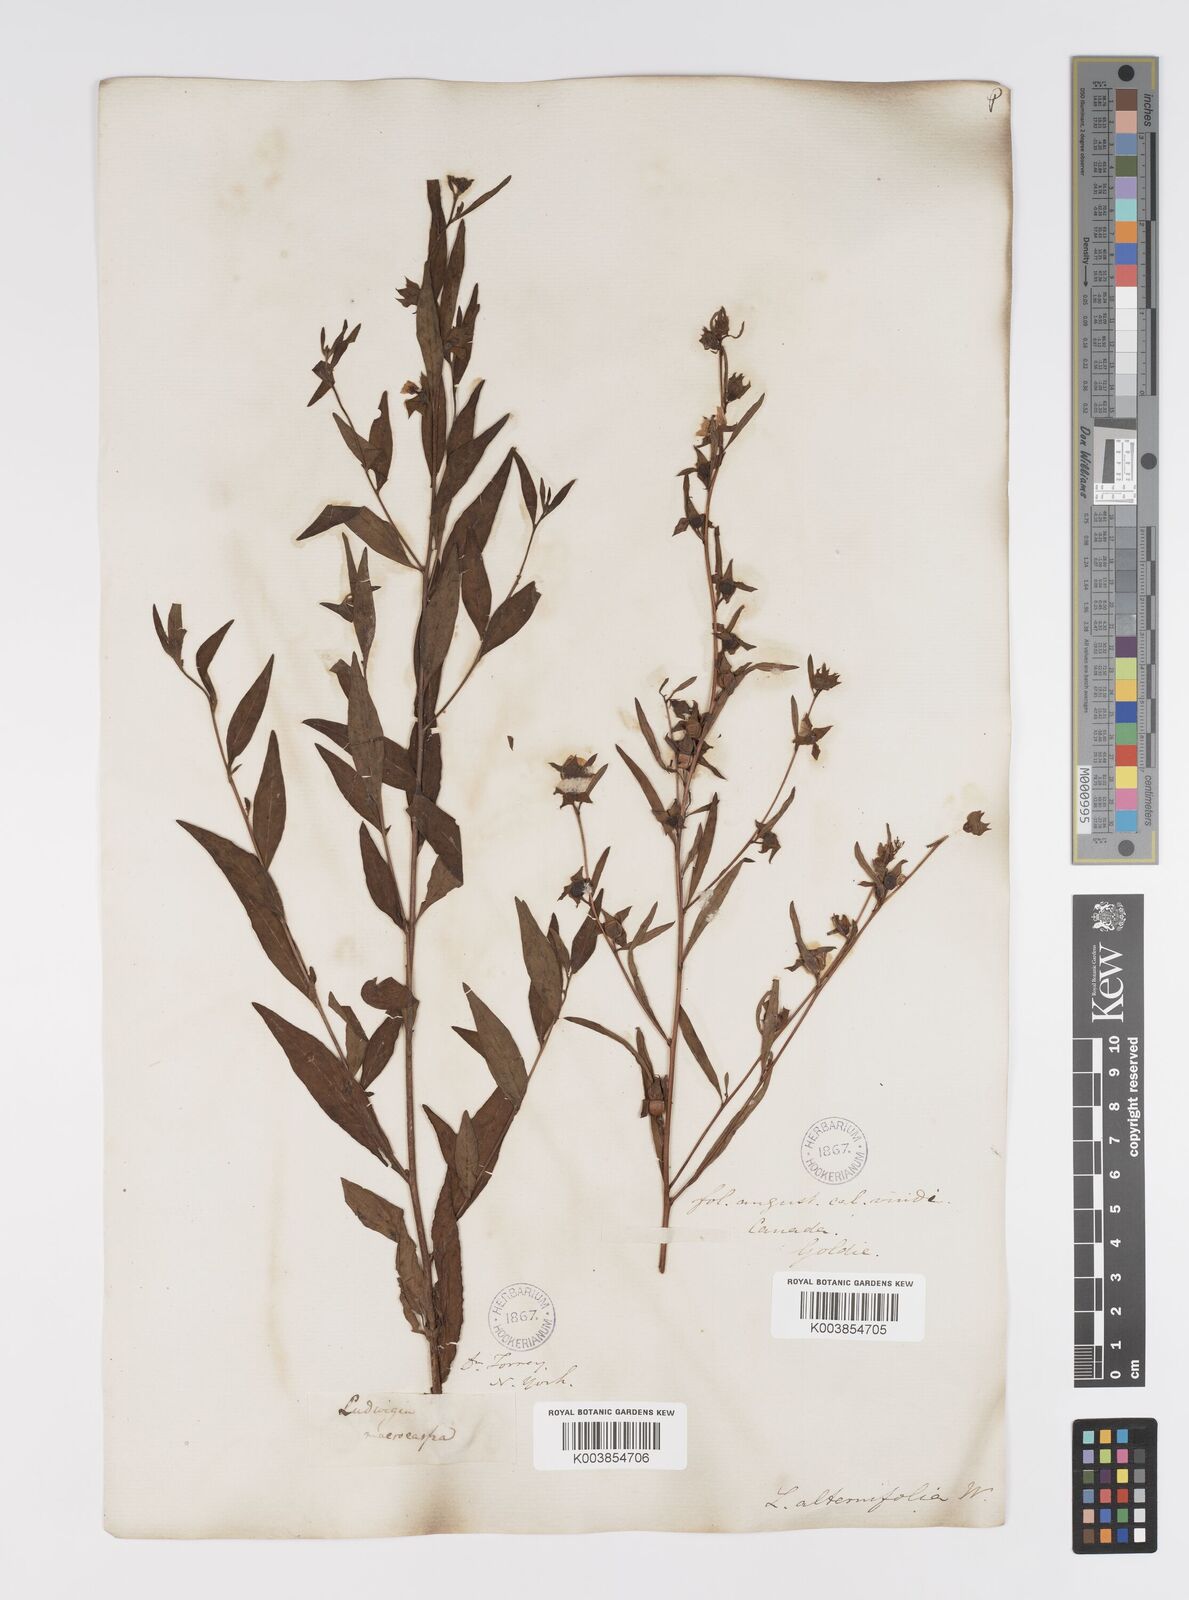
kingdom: Plantae
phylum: Tracheophyta
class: Magnoliopsida
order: Myrtales
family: Onagraceae
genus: Ludwigia
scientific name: Ludwigia alternifolia
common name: Rattlebox
